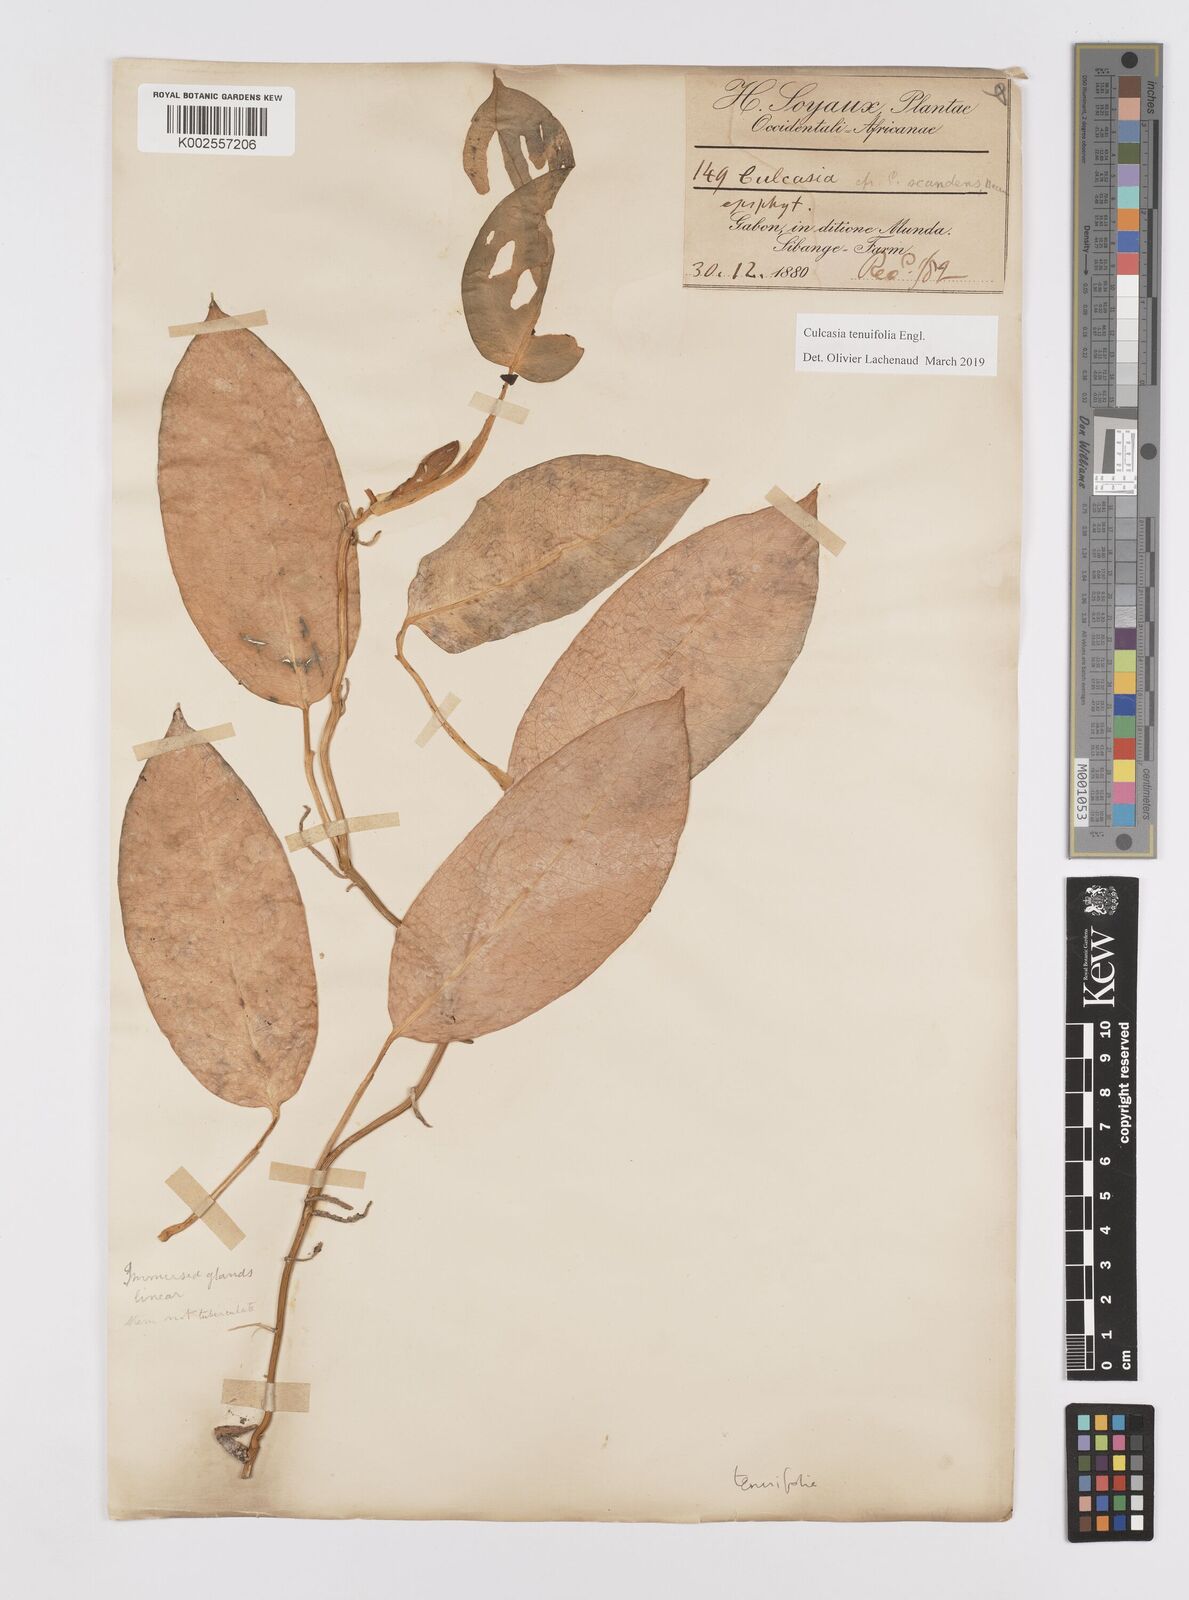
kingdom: Plantae
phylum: Tracheophyta
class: Liliopsida
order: Alismatales
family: Araceae
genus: Culcasia
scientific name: Culcasia tenuifolia
